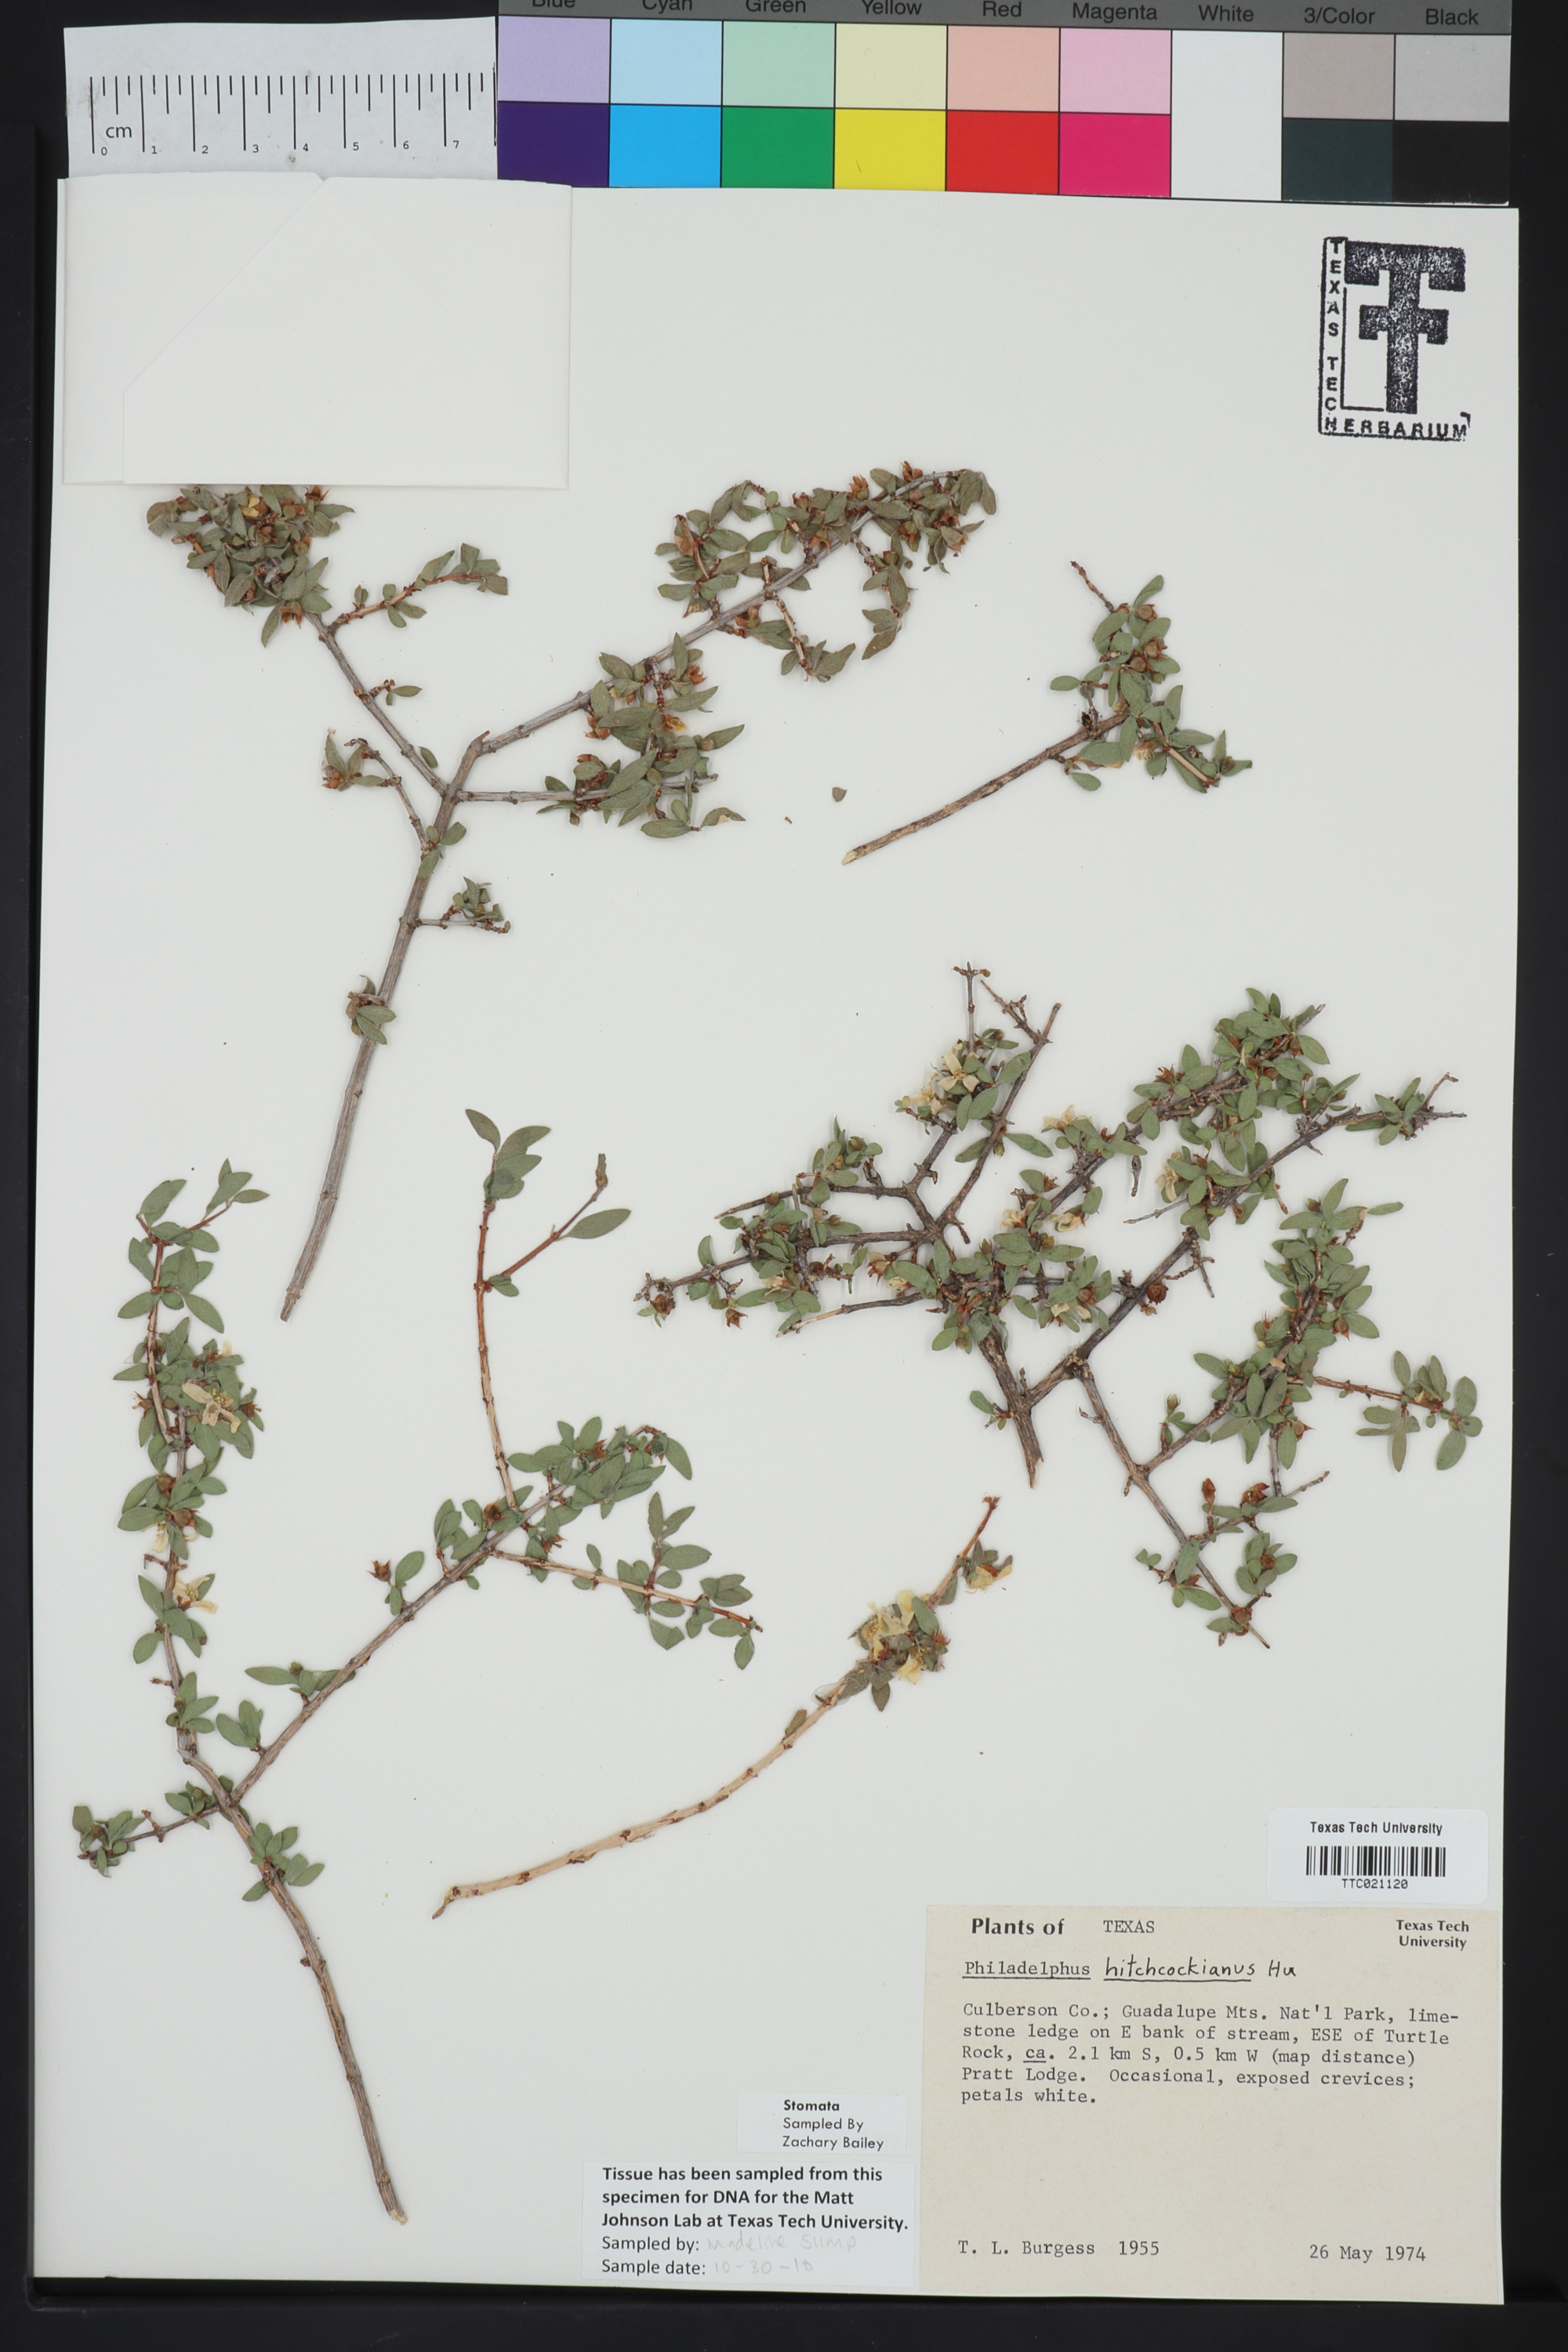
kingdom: Plantae
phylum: Tracheophyta
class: Magnoliopsida
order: Cornales
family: Hydrangeaceae
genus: Philadelphus
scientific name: Philadelphus mearnsii
